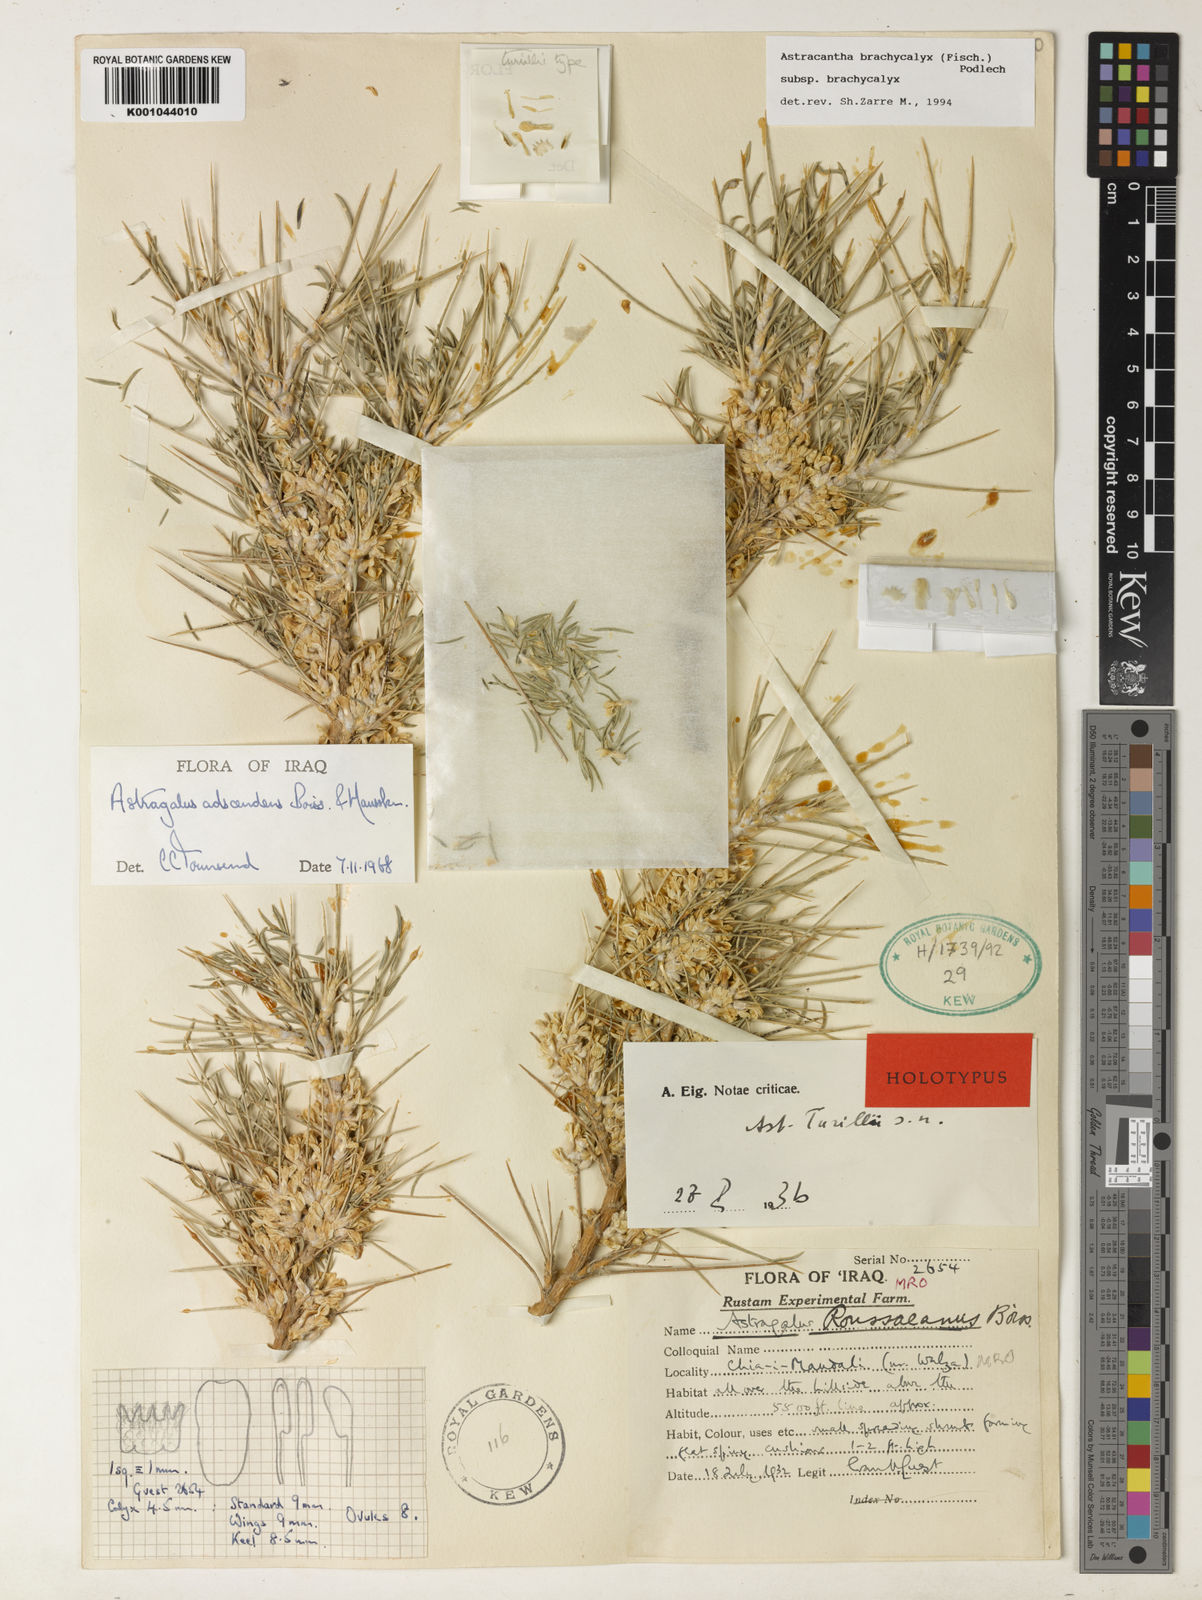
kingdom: Plantae
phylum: Tracheophyta
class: Magnoliopsida
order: Fabales
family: Fabaceae
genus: Astragalus
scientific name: Astragalus brachycalyx
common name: Persian manna
